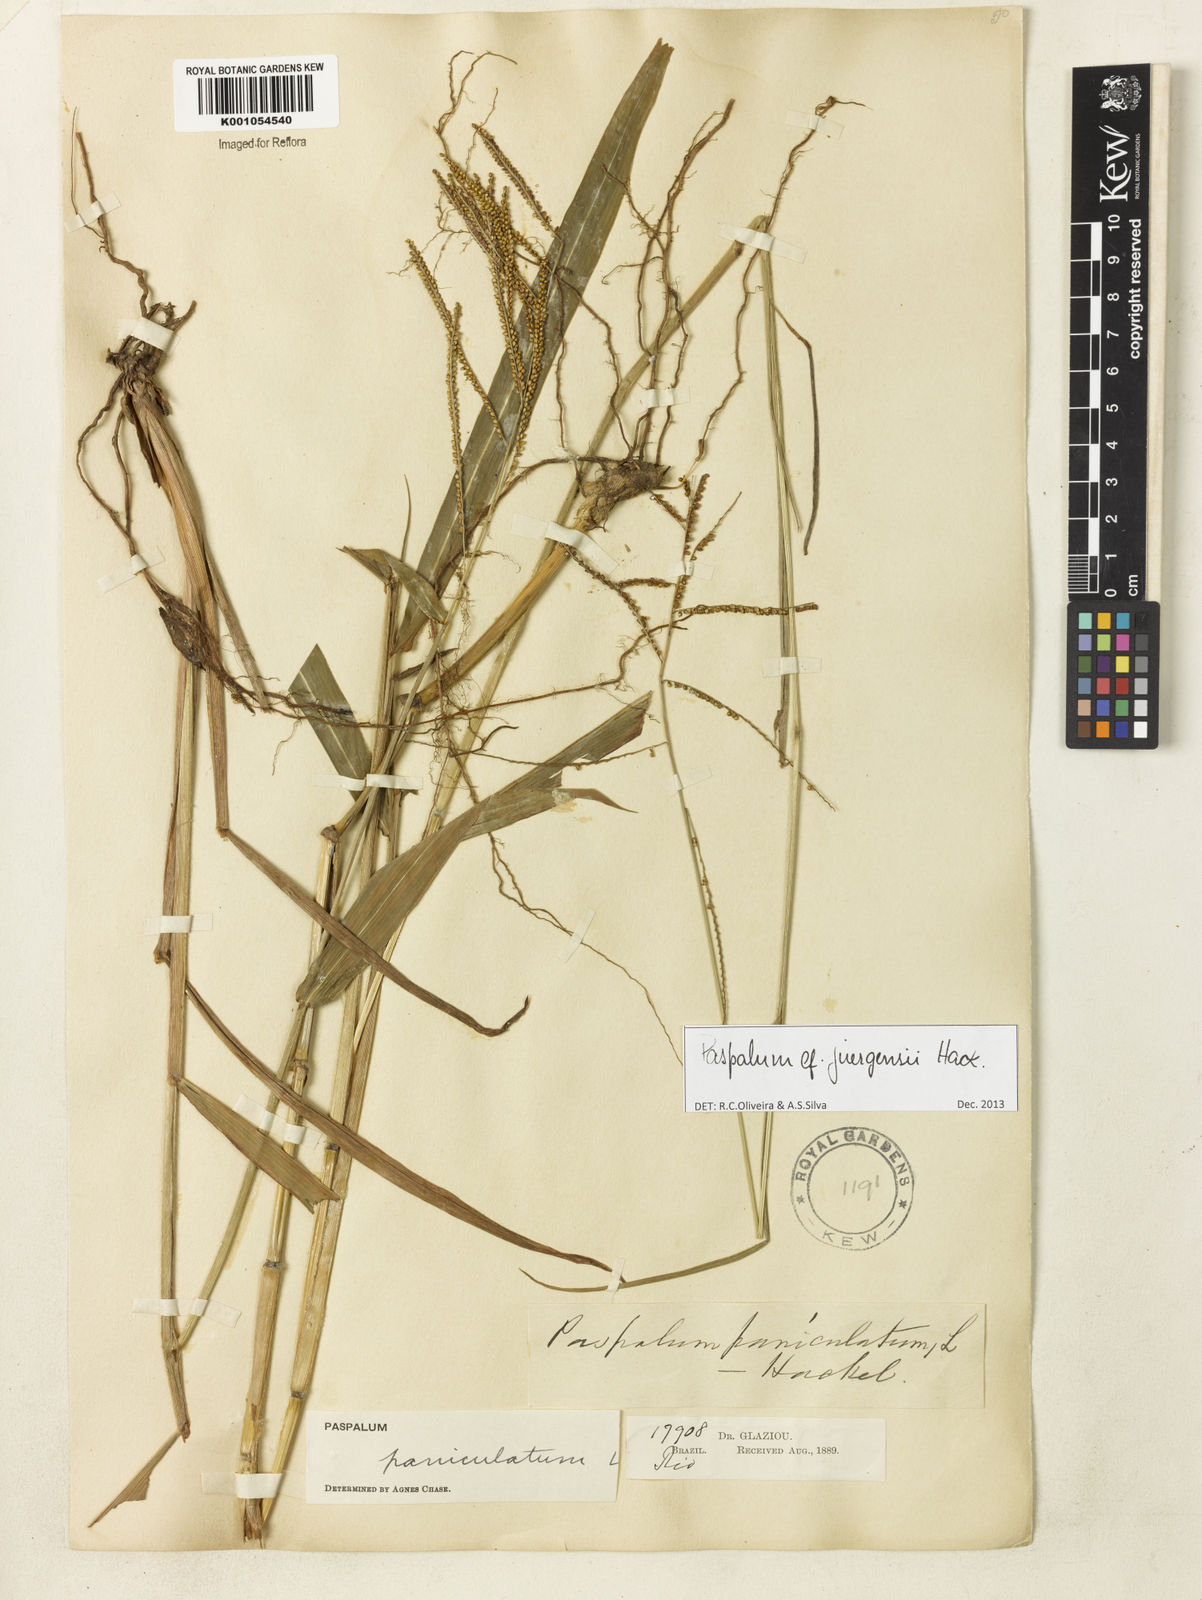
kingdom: Plantae
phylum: Tracheophyta
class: Liliopsida
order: Poales
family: Poaceae
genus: Paspalum
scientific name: Paspalum juergensii
